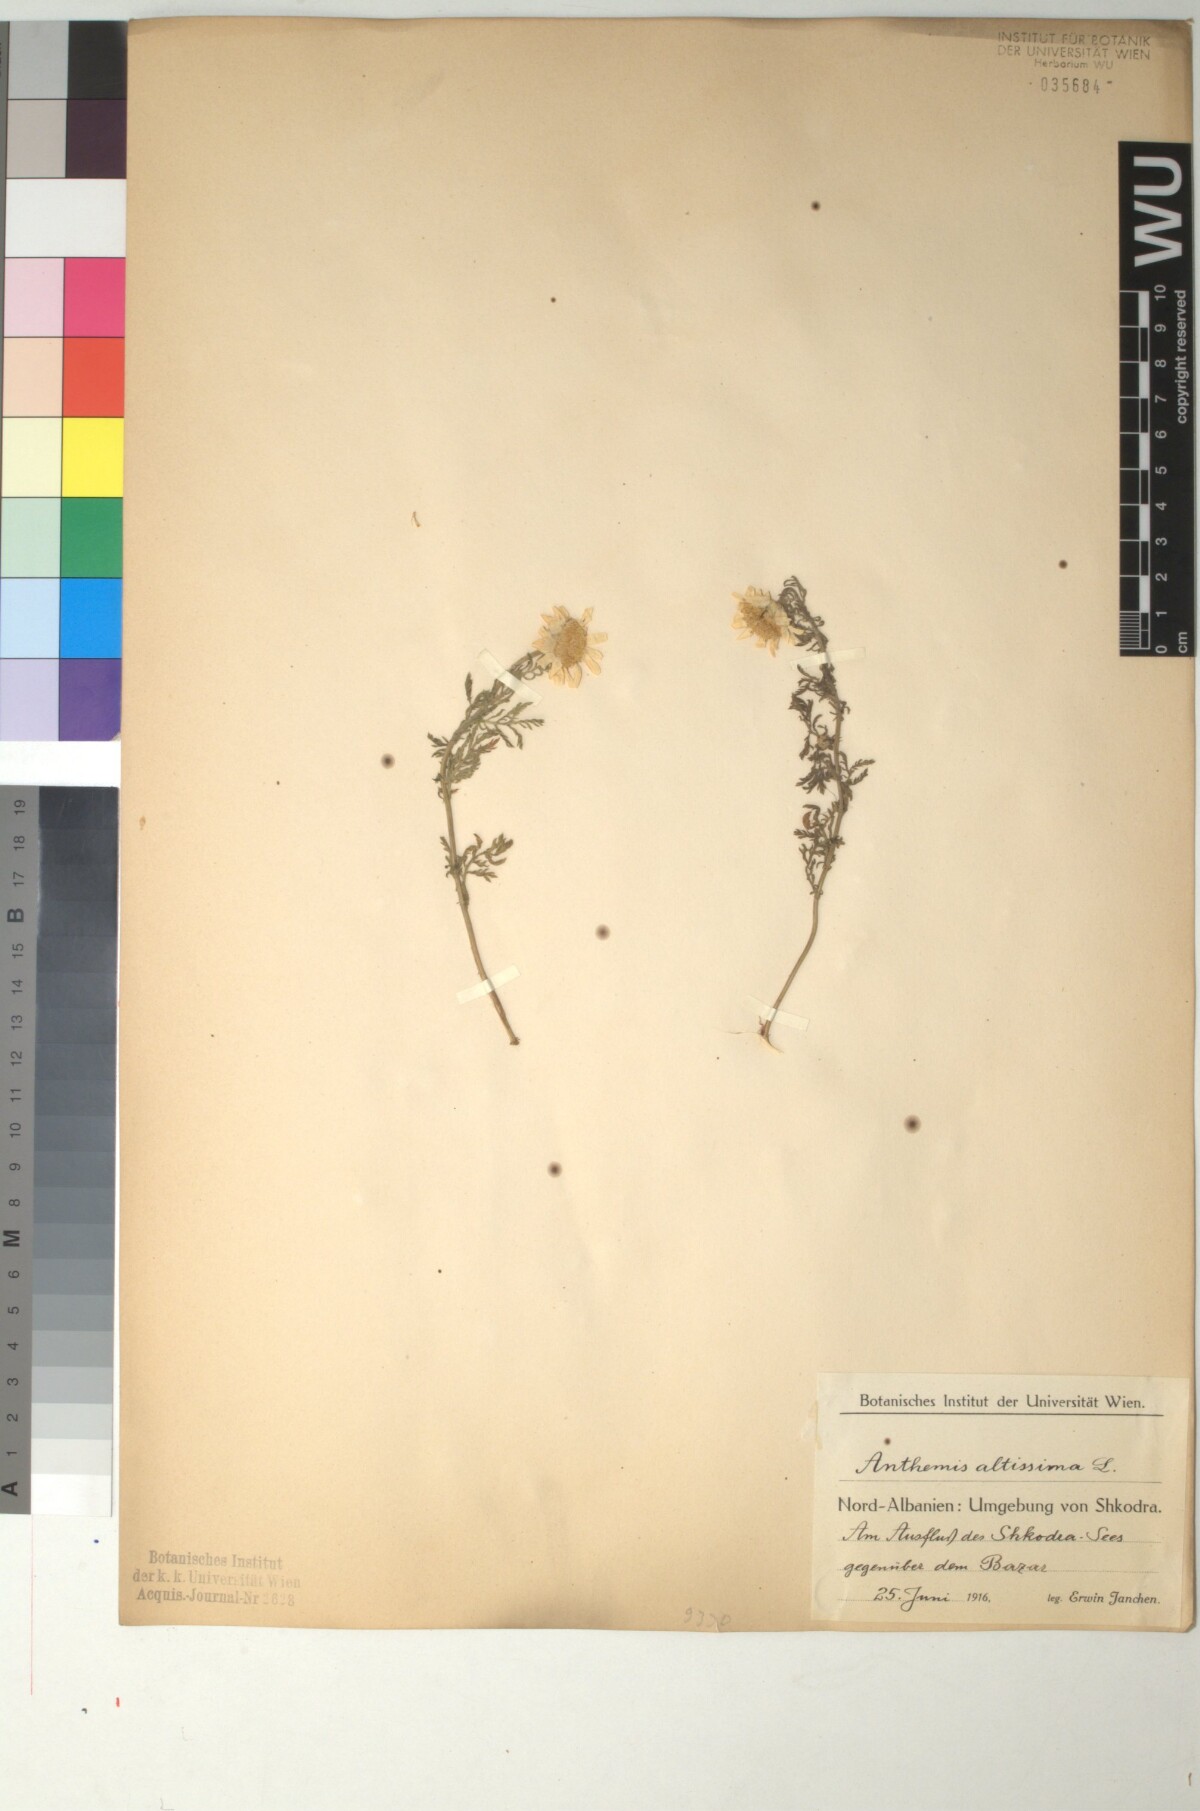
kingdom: Plantae
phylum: Tracheophyta
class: Magnoliopsida
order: Asterales
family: Asteraceae
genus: Cota
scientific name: Cota altissima
